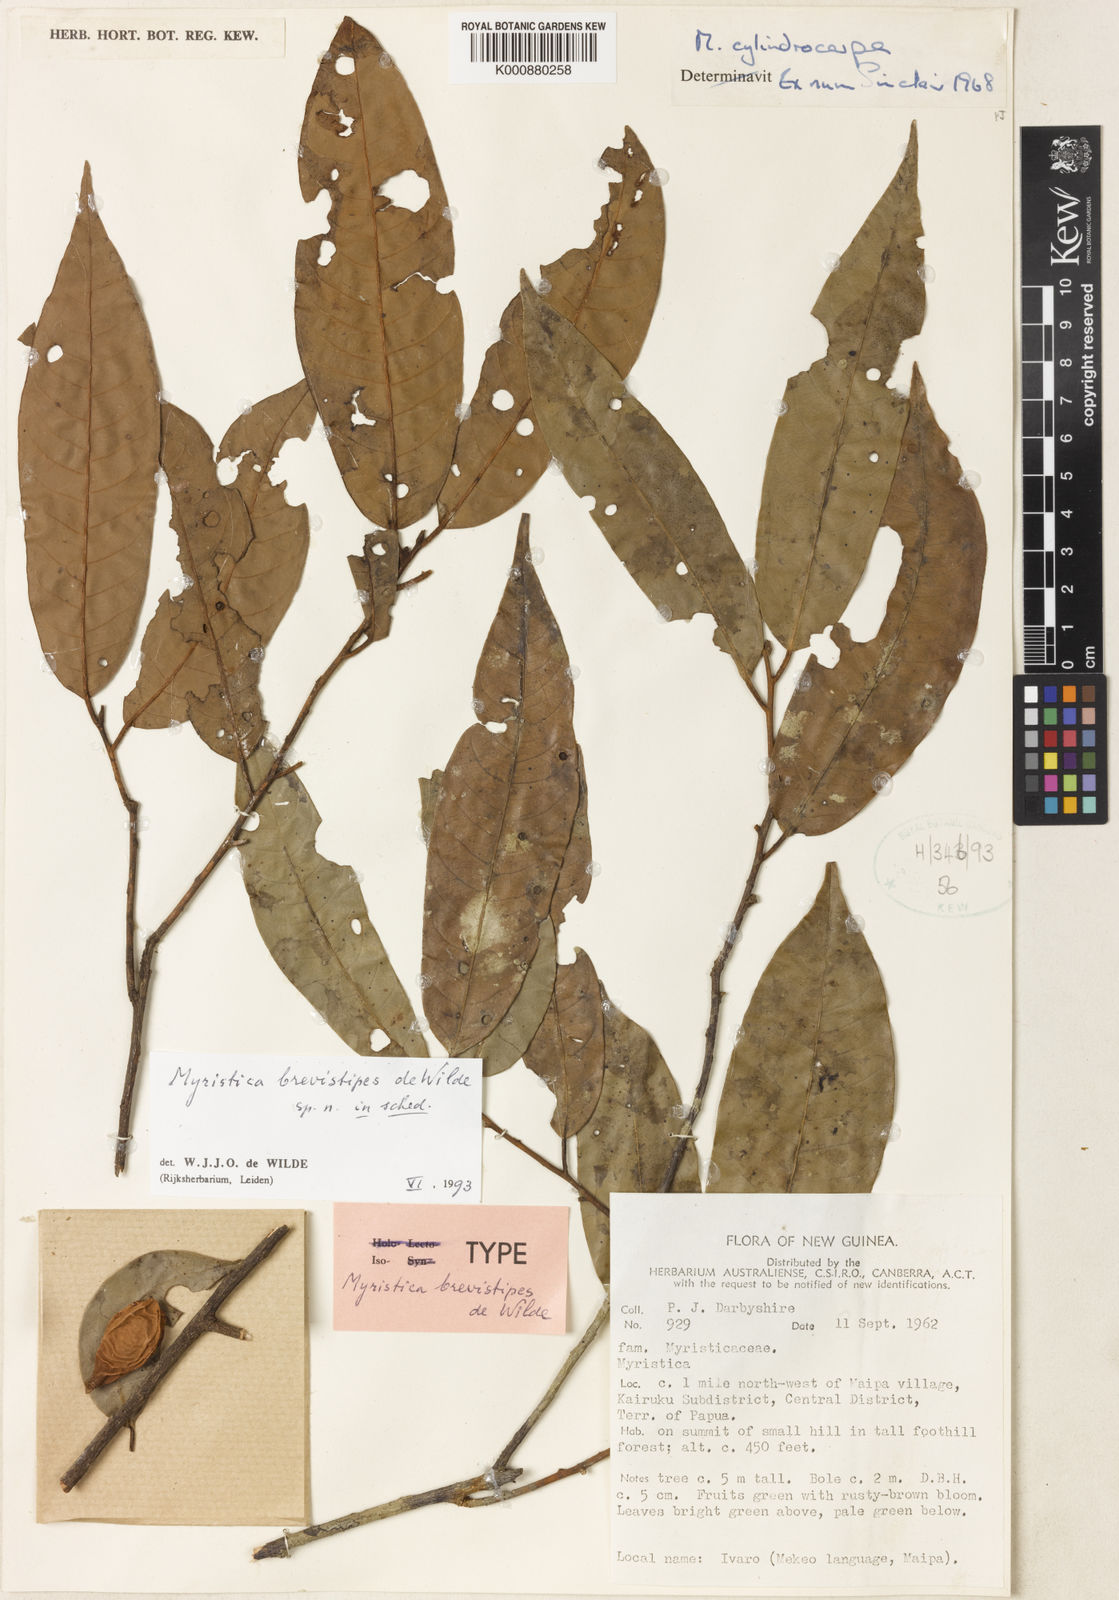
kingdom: Plantae
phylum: Tracheophyta
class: Magnoliopsida
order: Magnoliales
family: Myristicaceae
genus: Myristica
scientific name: Myristica brevistipes
